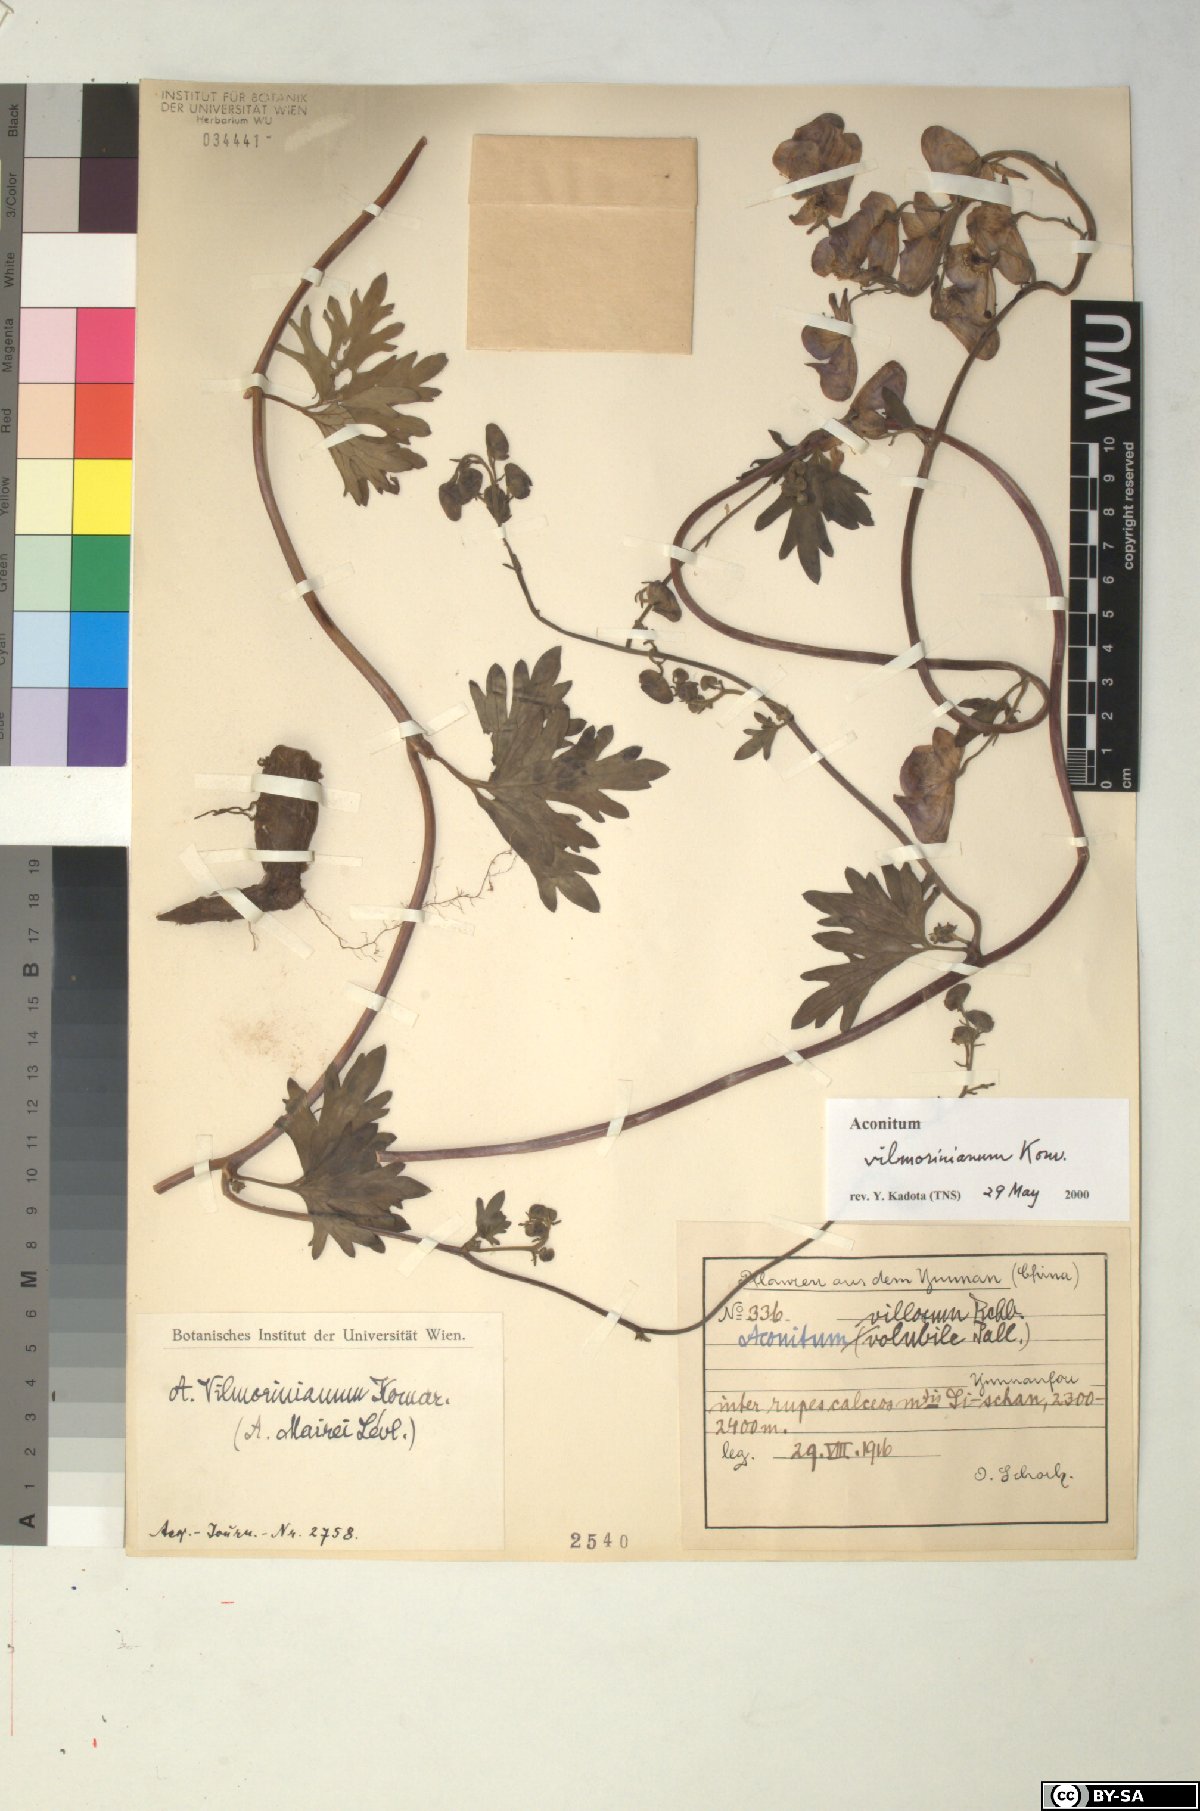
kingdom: Plantae
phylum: Tracheophyta
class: Magnoliopsida
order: Ranunculales
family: Ranunculaceae
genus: Aconitum
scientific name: Aconitum vilmorinianum
